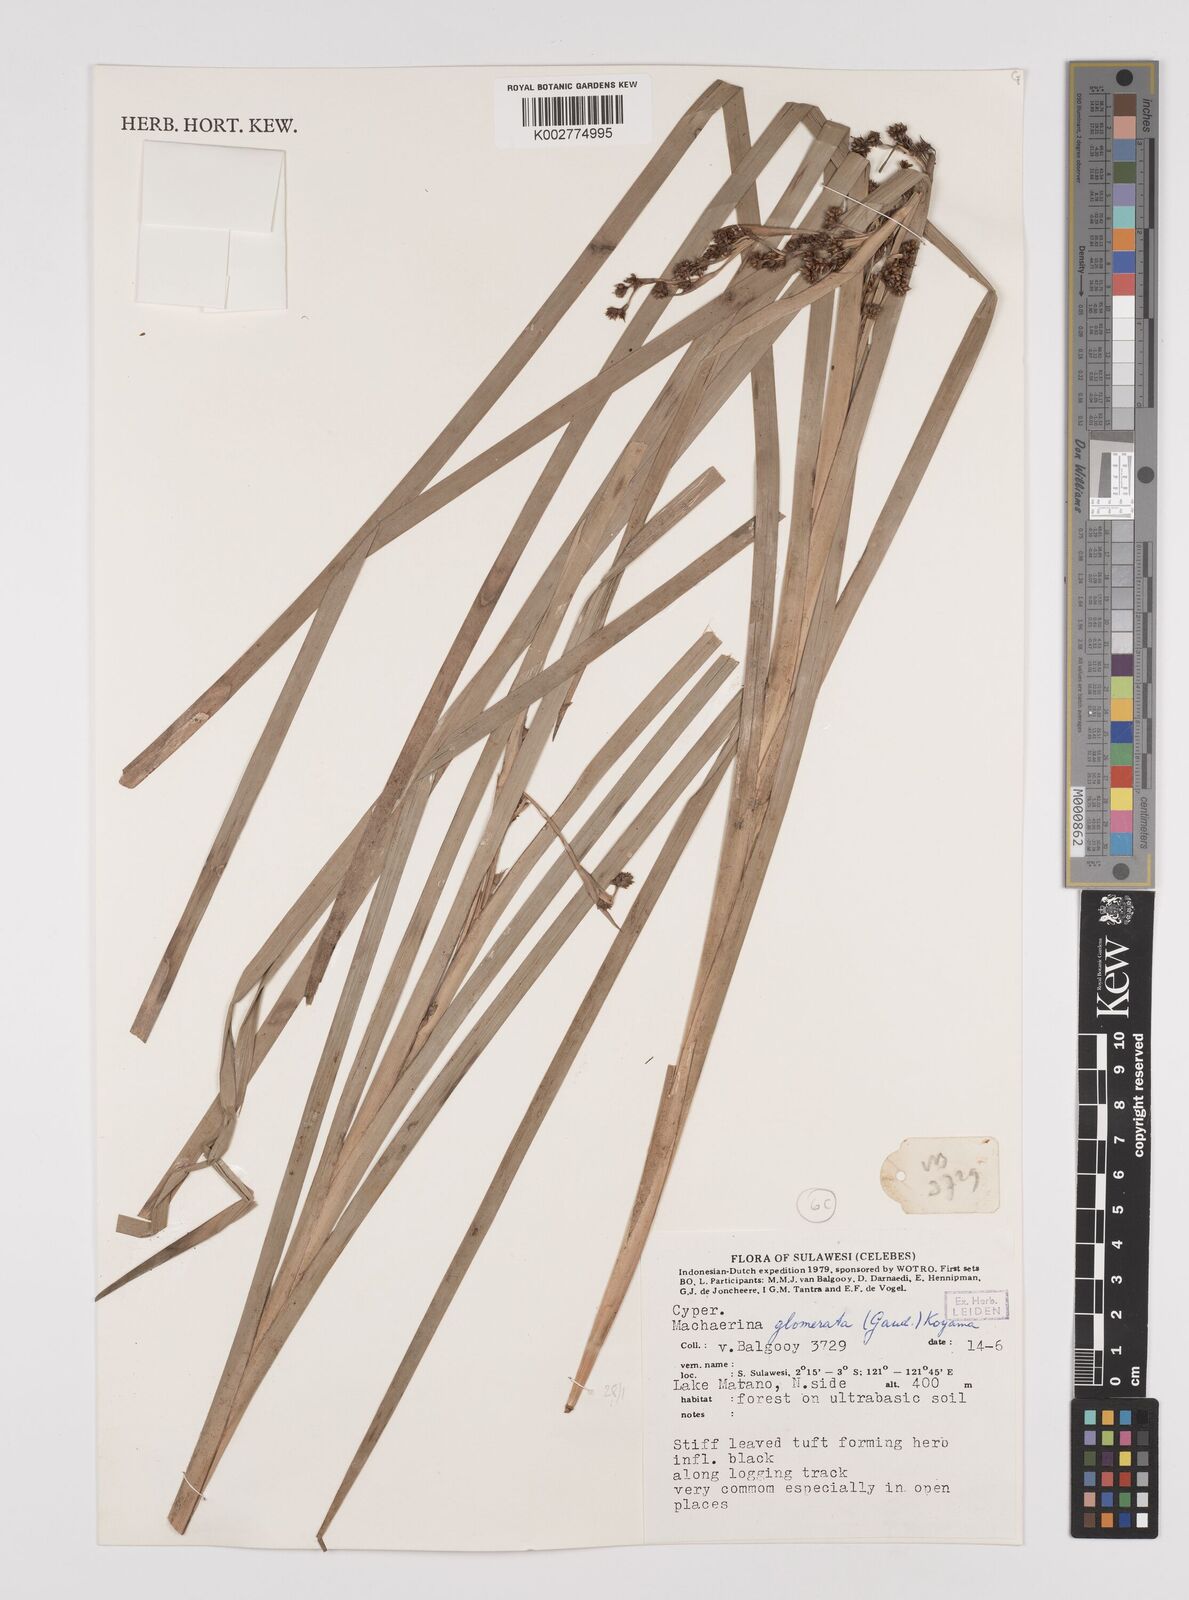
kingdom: Plantae
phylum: Tracheophyta
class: Liliopsida
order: Poales
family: Cyperaceae
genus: Machaerina
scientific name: Machaerina glomerata
